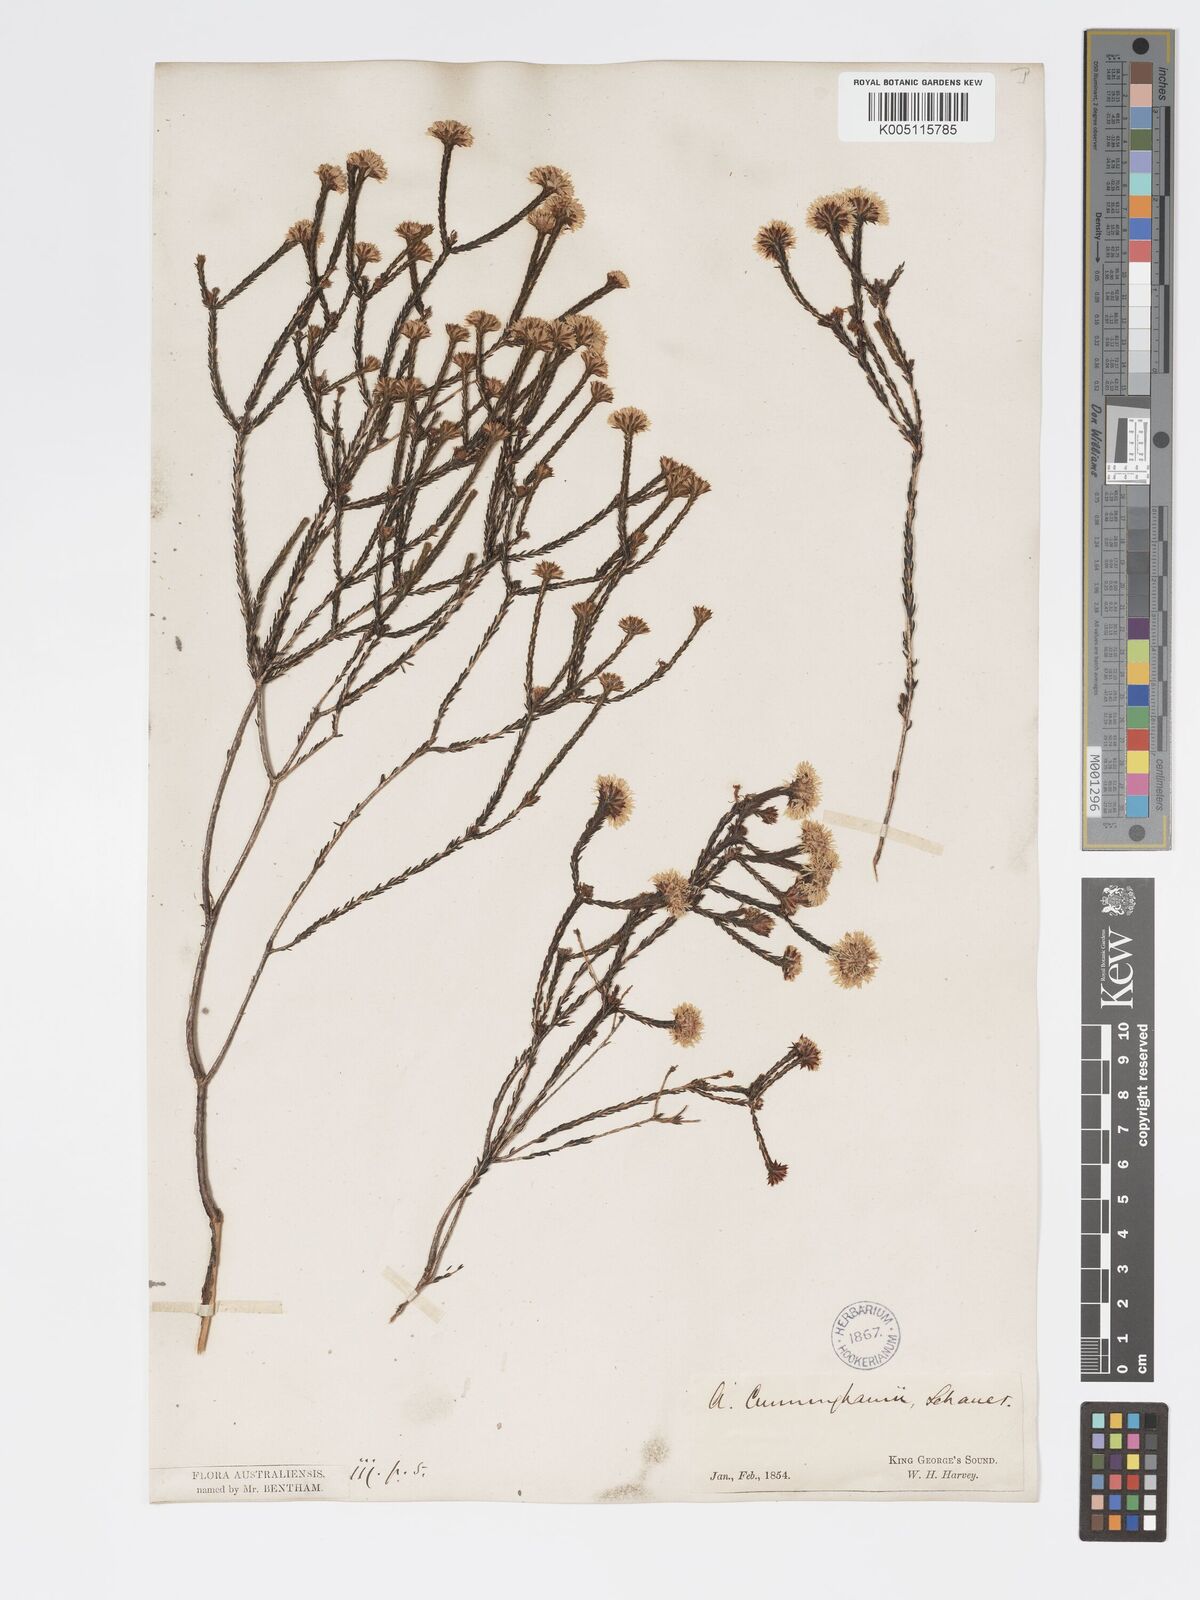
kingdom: Plantae
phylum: Tracheophyta
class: Magnoliopsida
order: Myrtales
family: Myrtaceae
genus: Actinodium
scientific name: Actinodium cunninghamii
